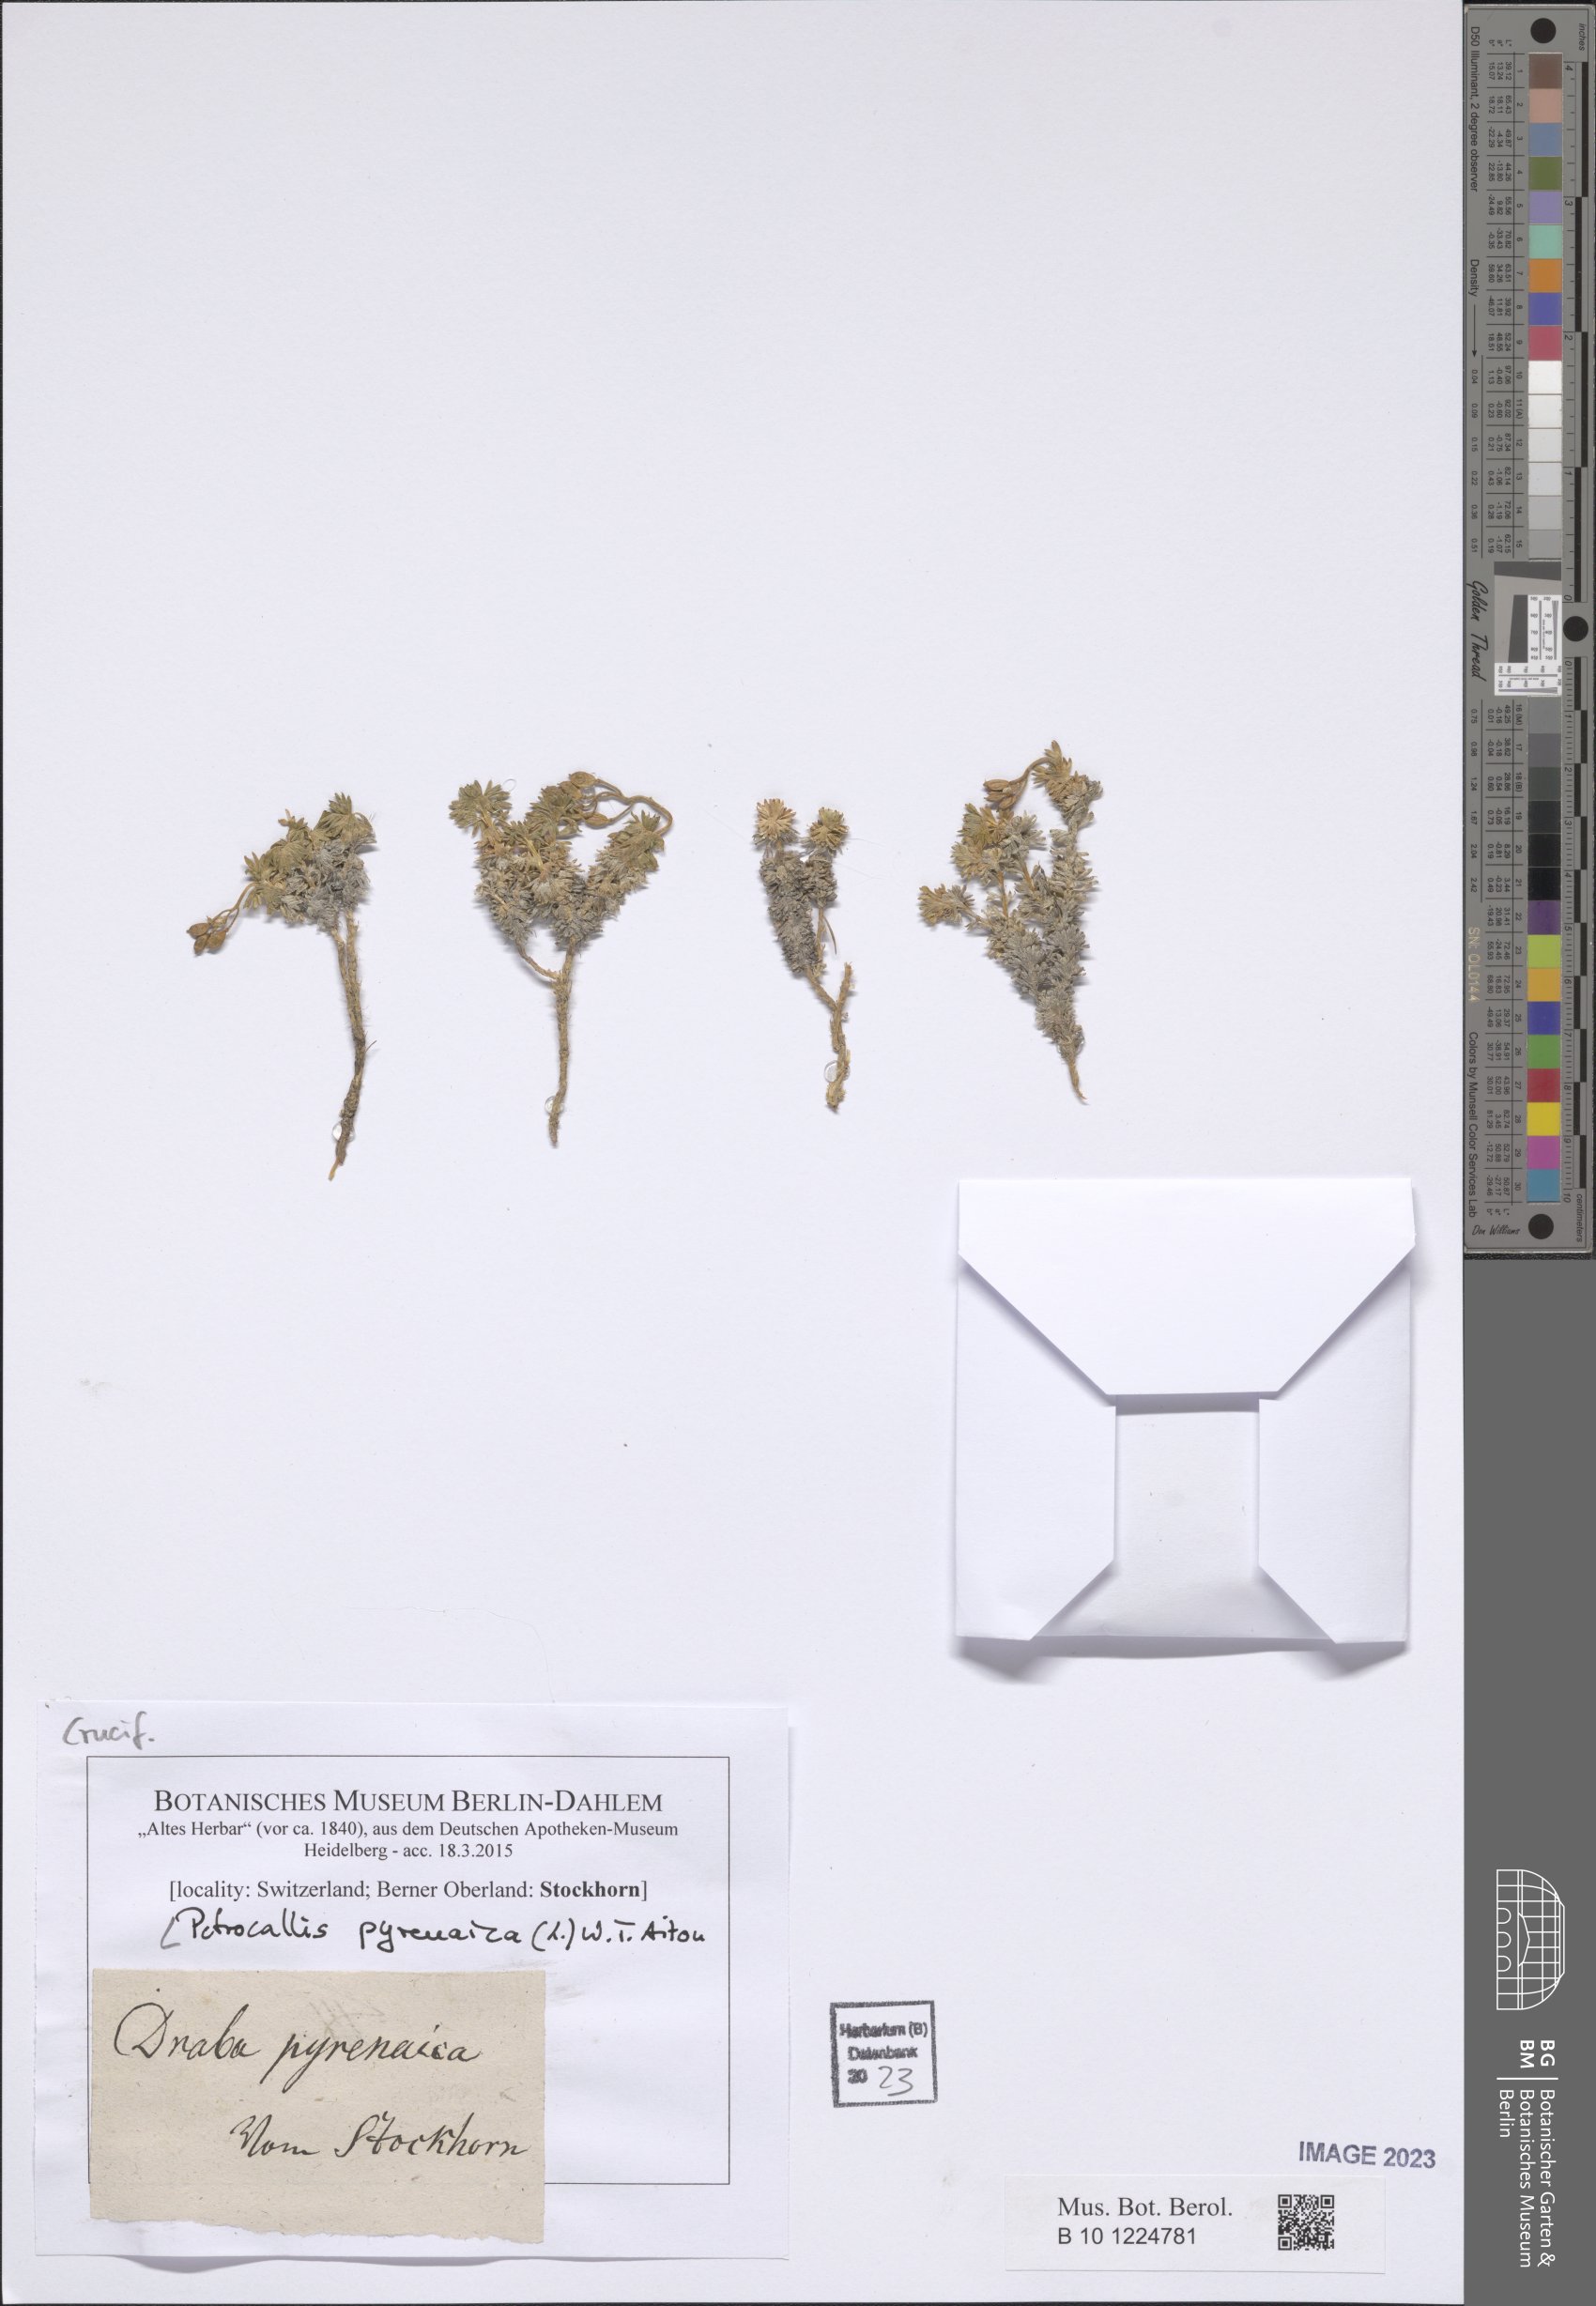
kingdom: Plantae
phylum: Tracheophyta
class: Magnoliopsida
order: Brassicales
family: Brassicaceae
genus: Petrocallis
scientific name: Petrocallis pyrenaica
